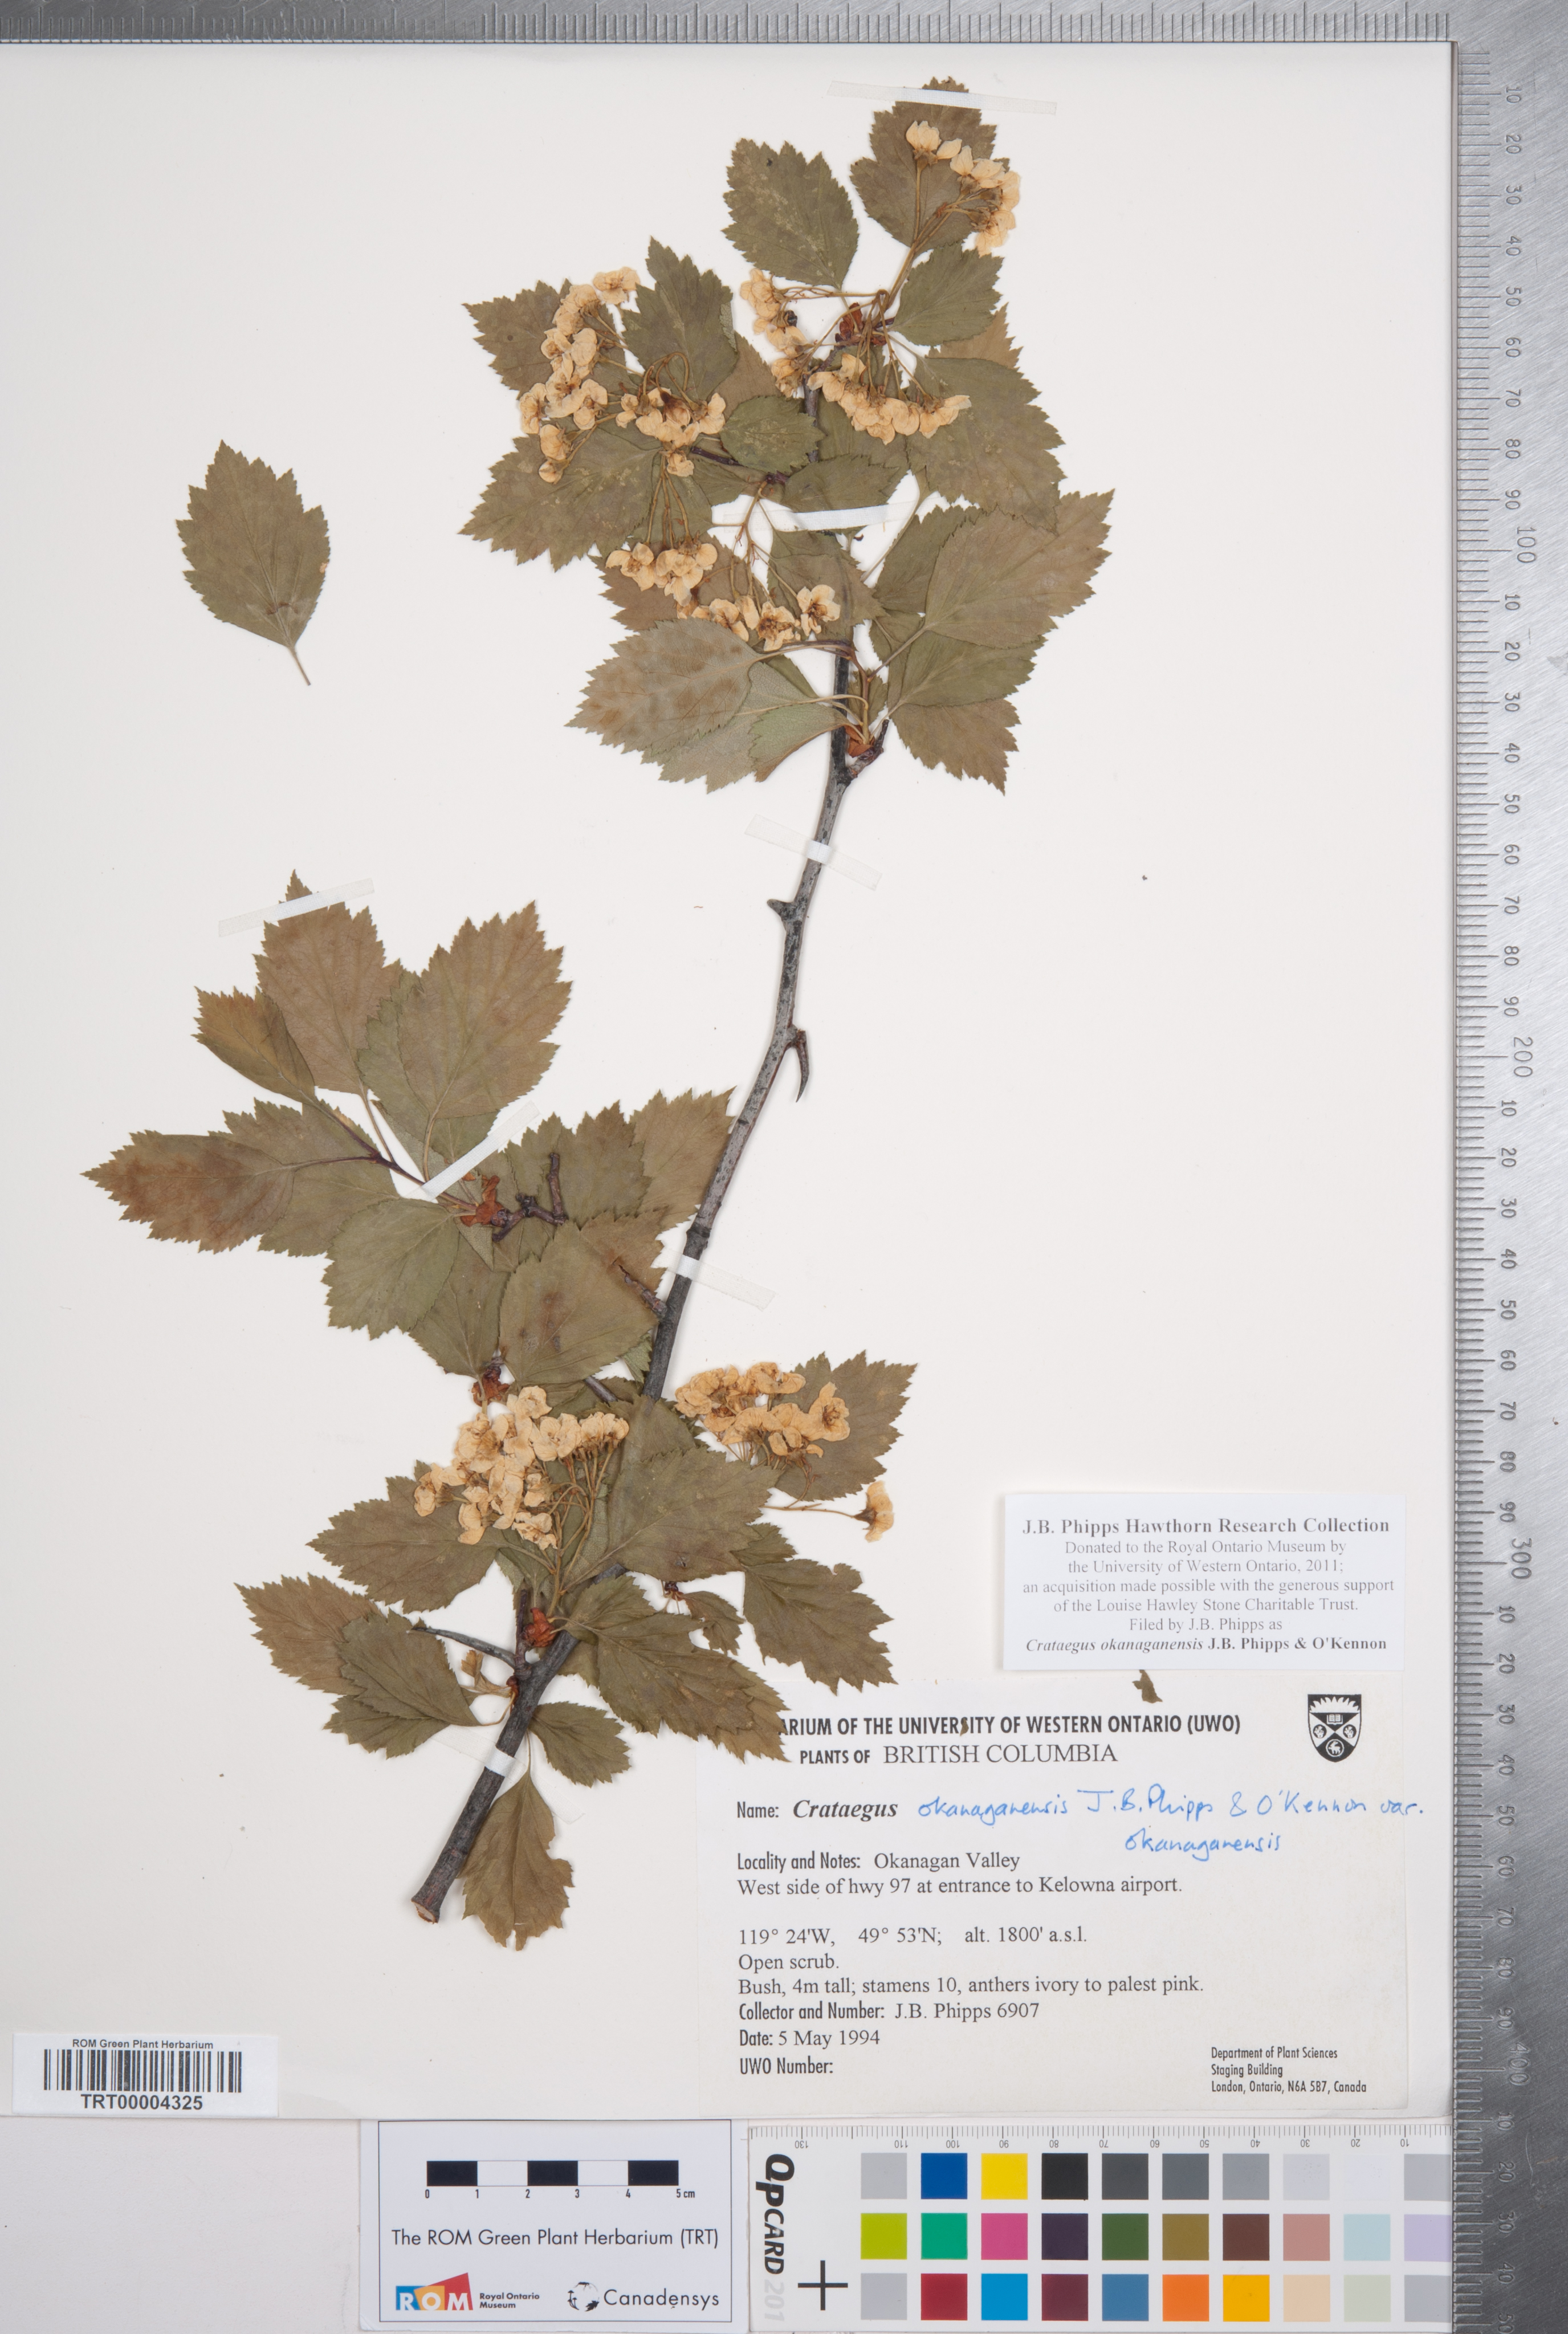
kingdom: Plantae
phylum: Tracheophyta
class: Magnoliopsida
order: Rosales
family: Rosaceae
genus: Crataegus
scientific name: Crataegus okanaganensis
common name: Okanagan valley hawthorn
